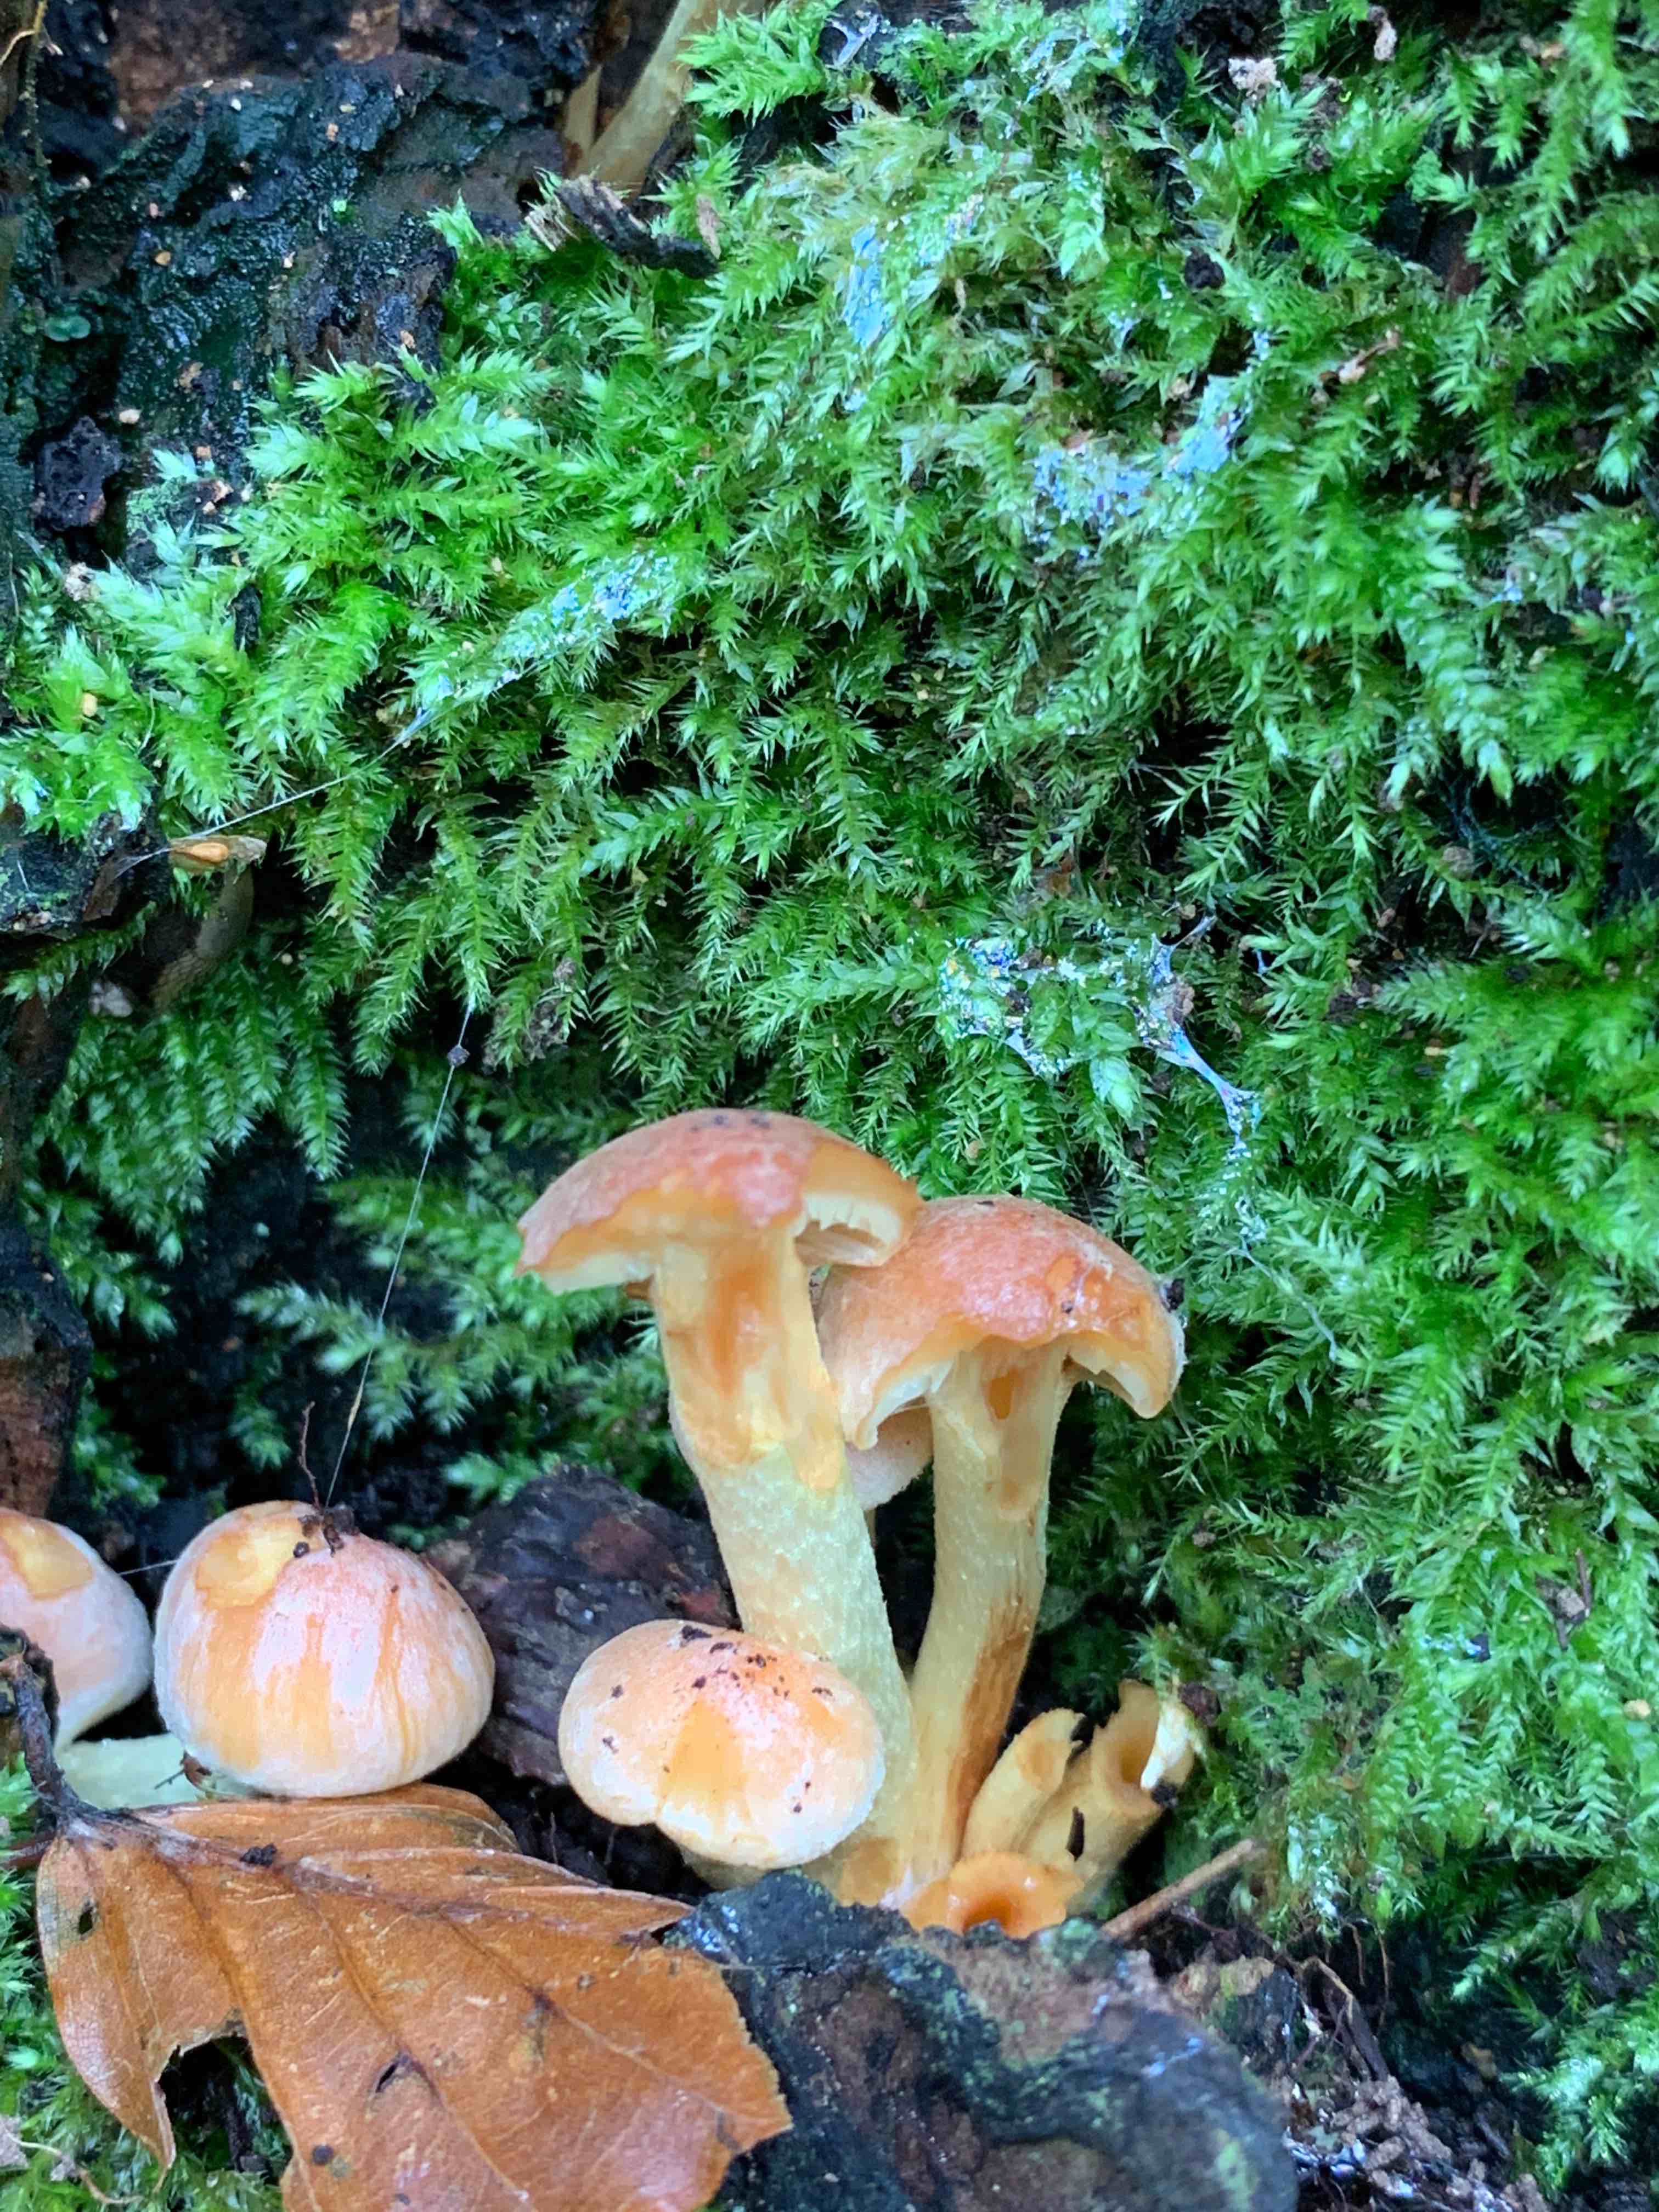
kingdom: Fungi
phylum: Basidiomycota
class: Agaricomycetes
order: Agaricales
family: Strophariaceae
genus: Hypholoma
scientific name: Hypholoma fasciculare
